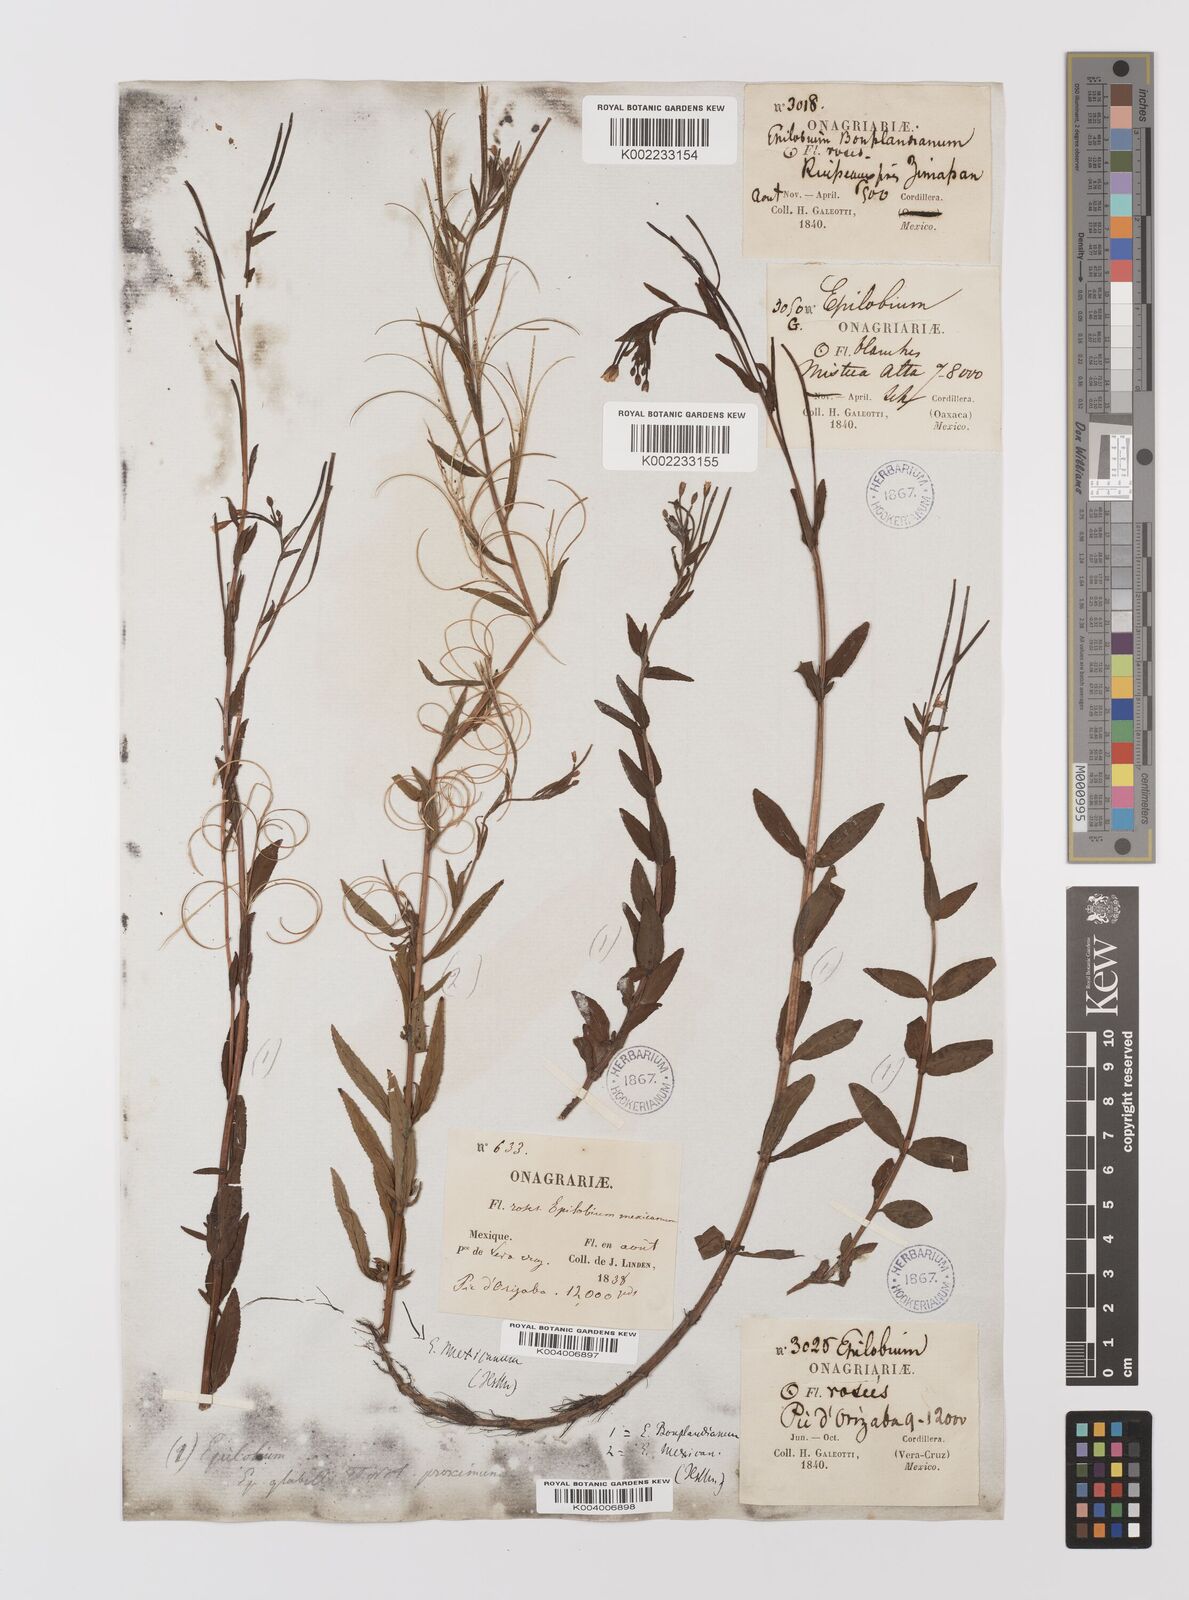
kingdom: Plantae
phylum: Tracheophyta
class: Magnoliopsida
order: Myrtales
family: Onagraceae
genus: Epilobium
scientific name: Epilobium
